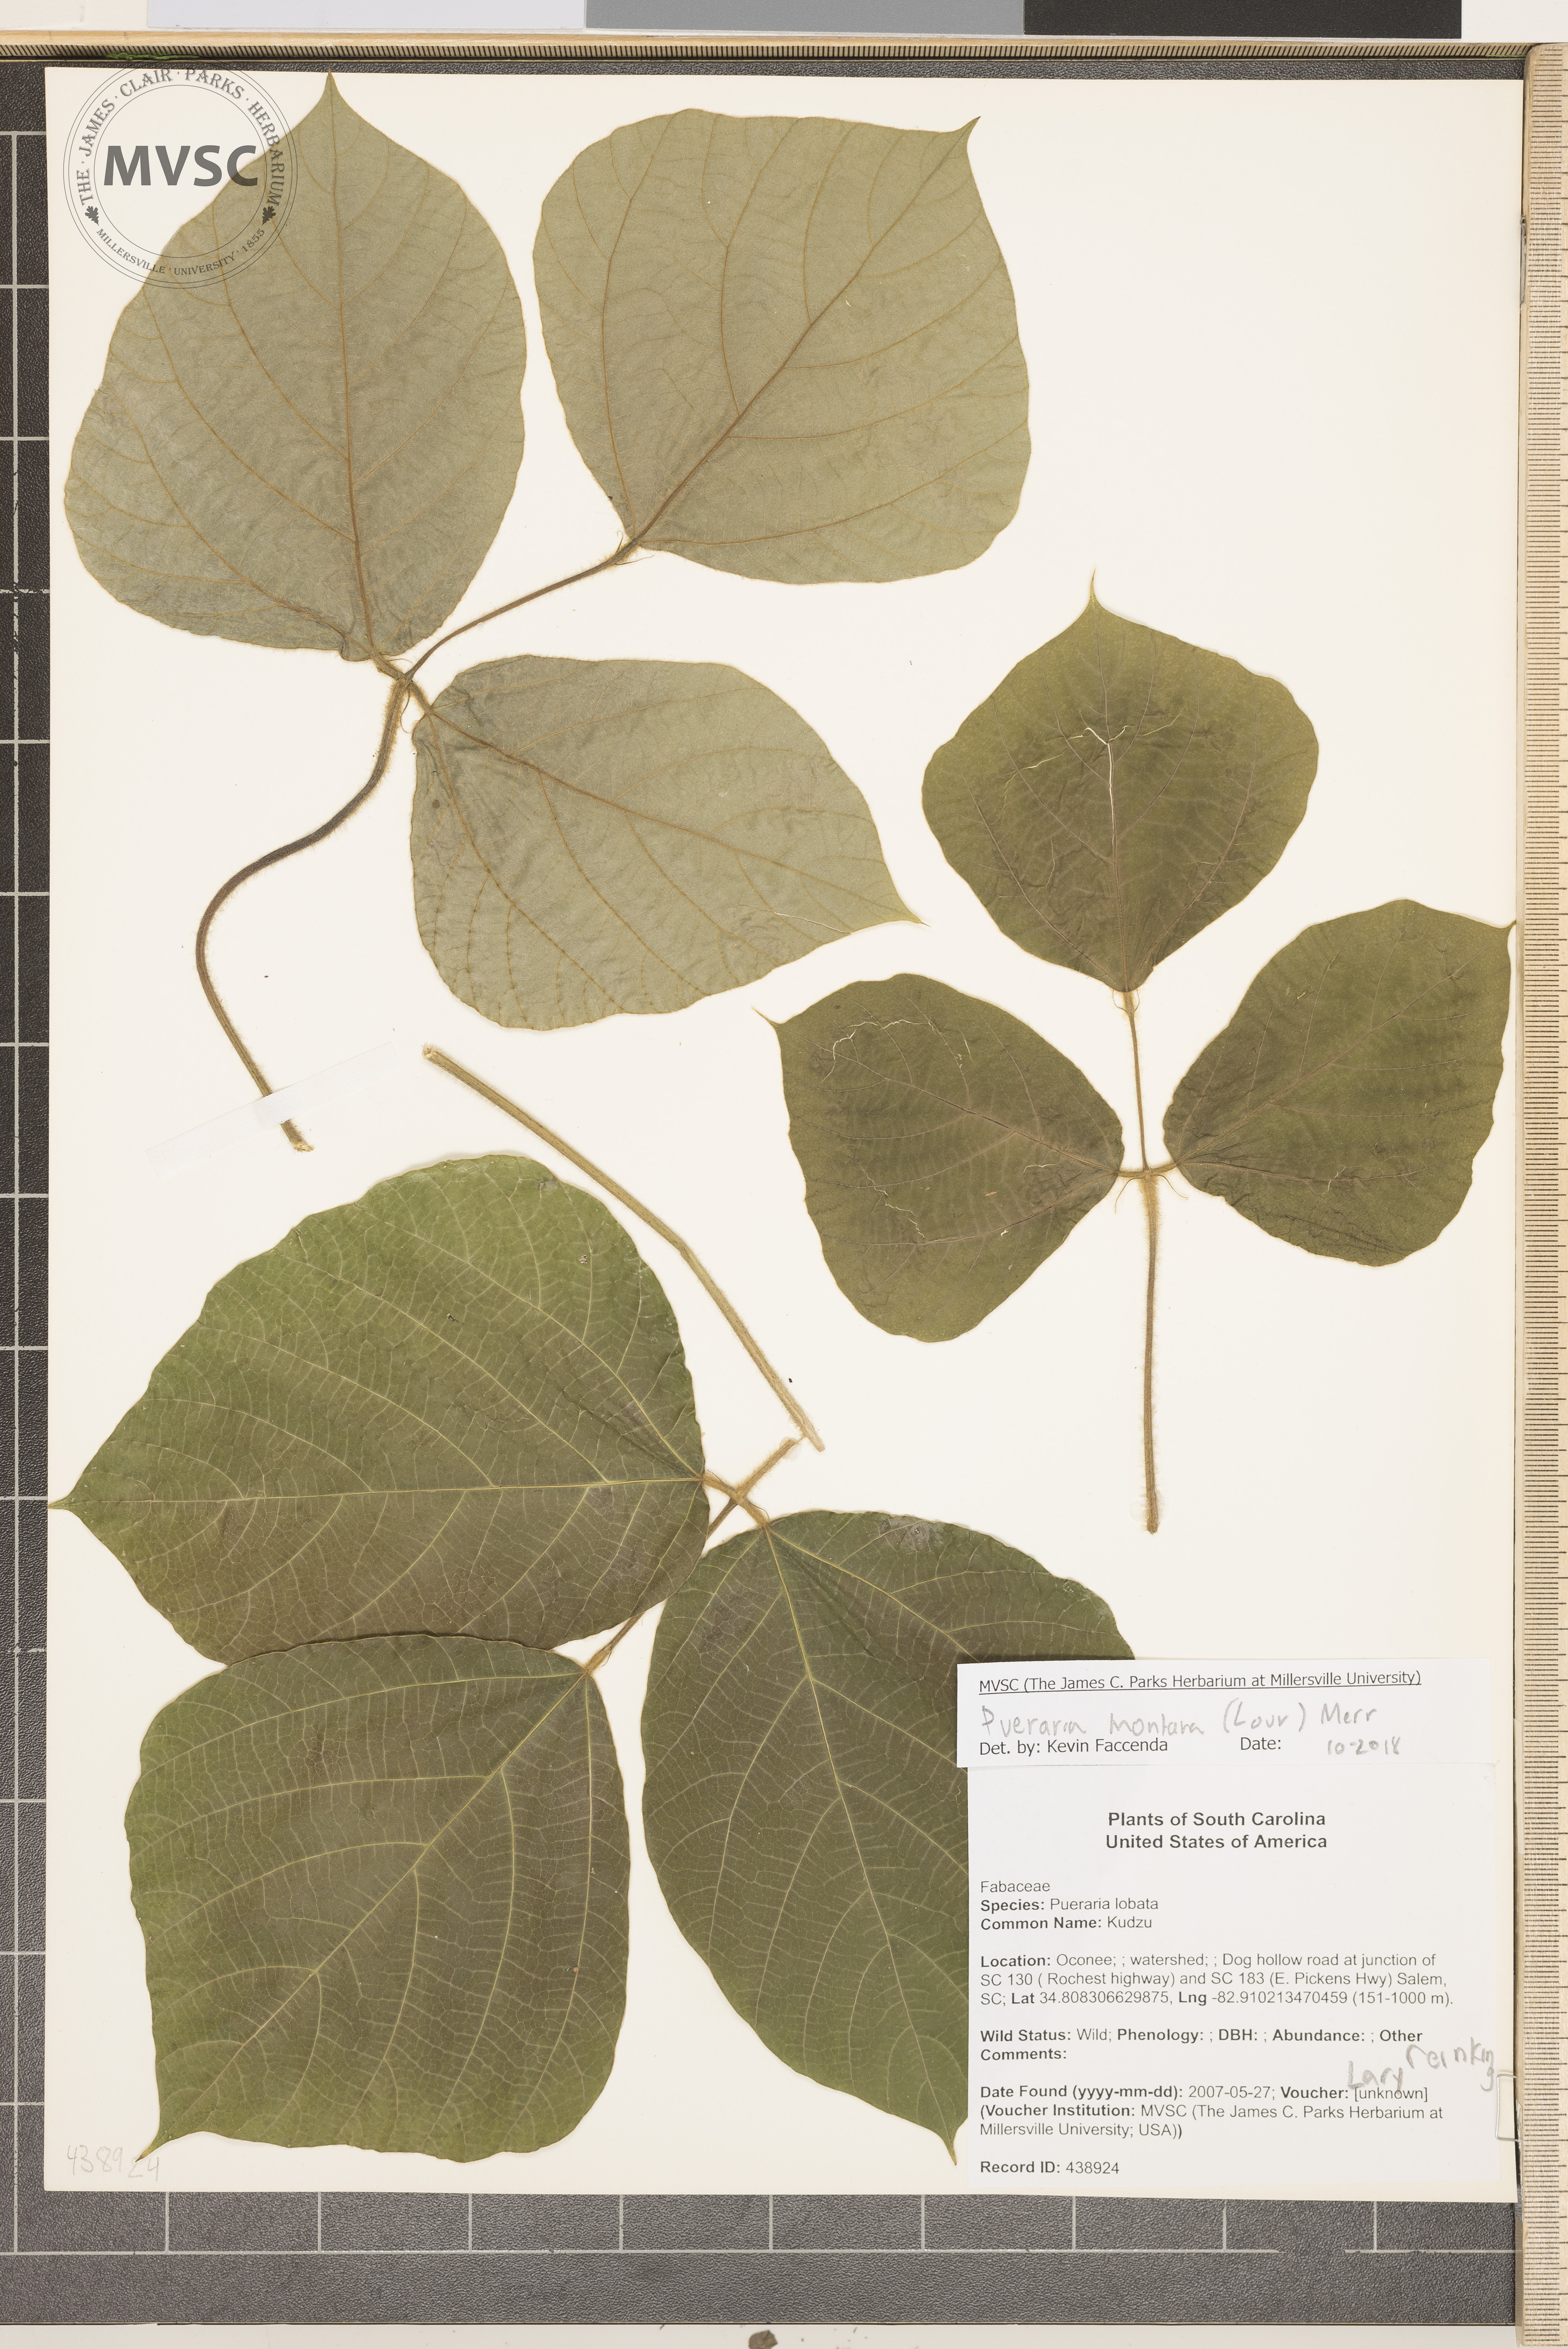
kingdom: Plantae
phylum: Tracheophyta
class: Magnoliopsida
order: Fabales
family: Fabaceae
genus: Pueraria
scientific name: Pueraria montana
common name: Kudzu
